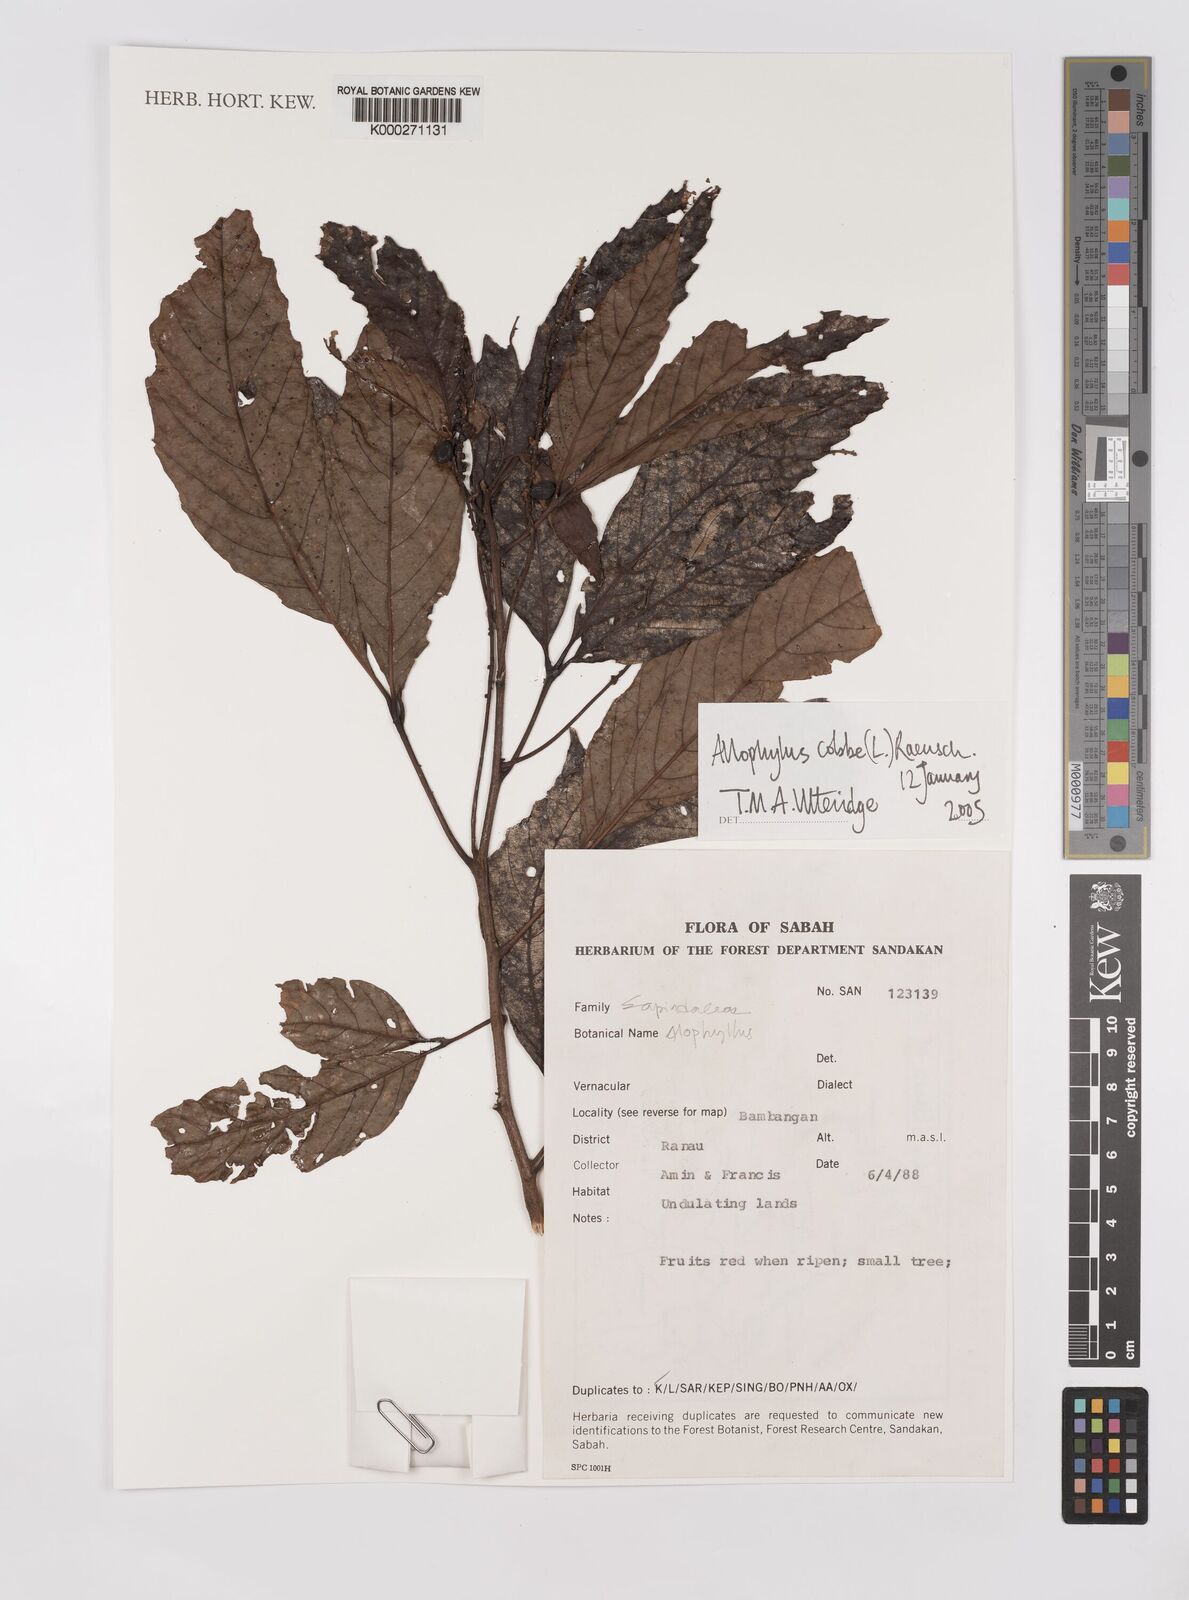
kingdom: Plantae
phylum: Tracheophyta
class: Magnoliopsida
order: Sapindales
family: Sapindaceae
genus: Allophylus
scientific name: Allophylus
